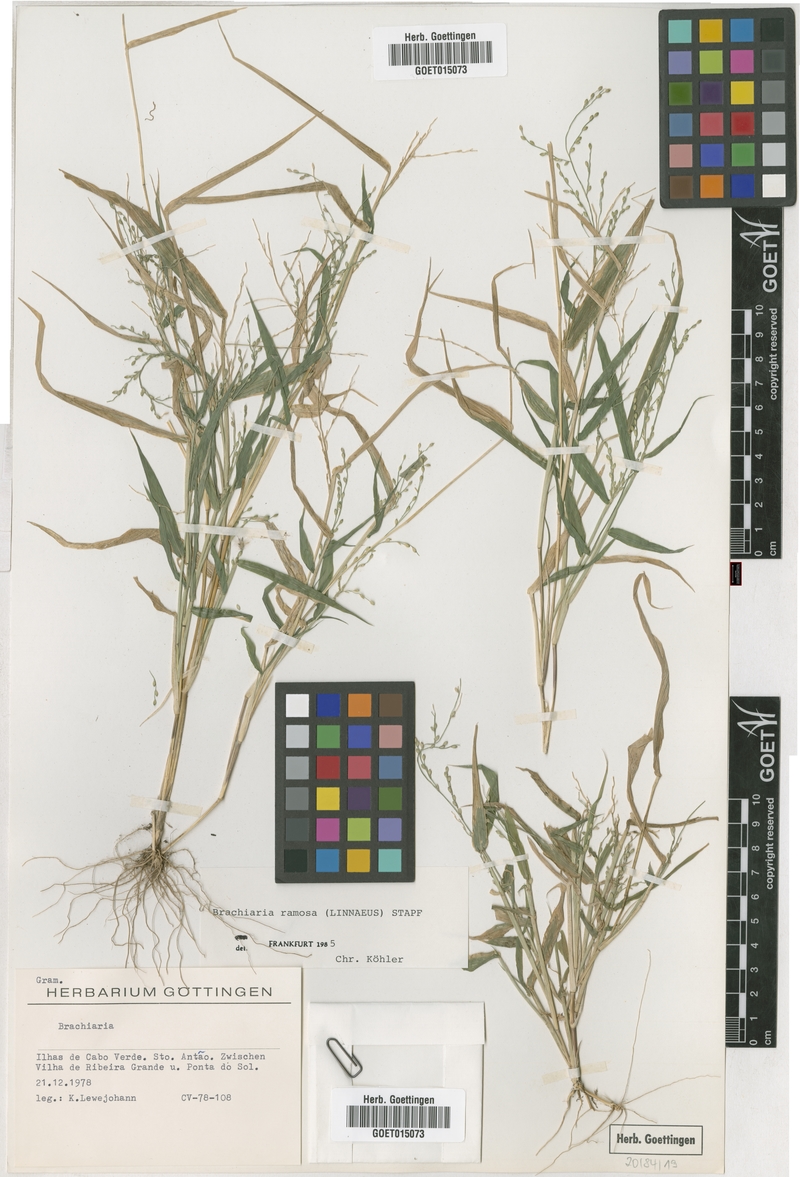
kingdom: Plantae
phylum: Tracheophyta
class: Liliopsida
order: Poales
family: Poaceae
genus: Urochloa
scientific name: Urochloa ramosa
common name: Browntop millet
